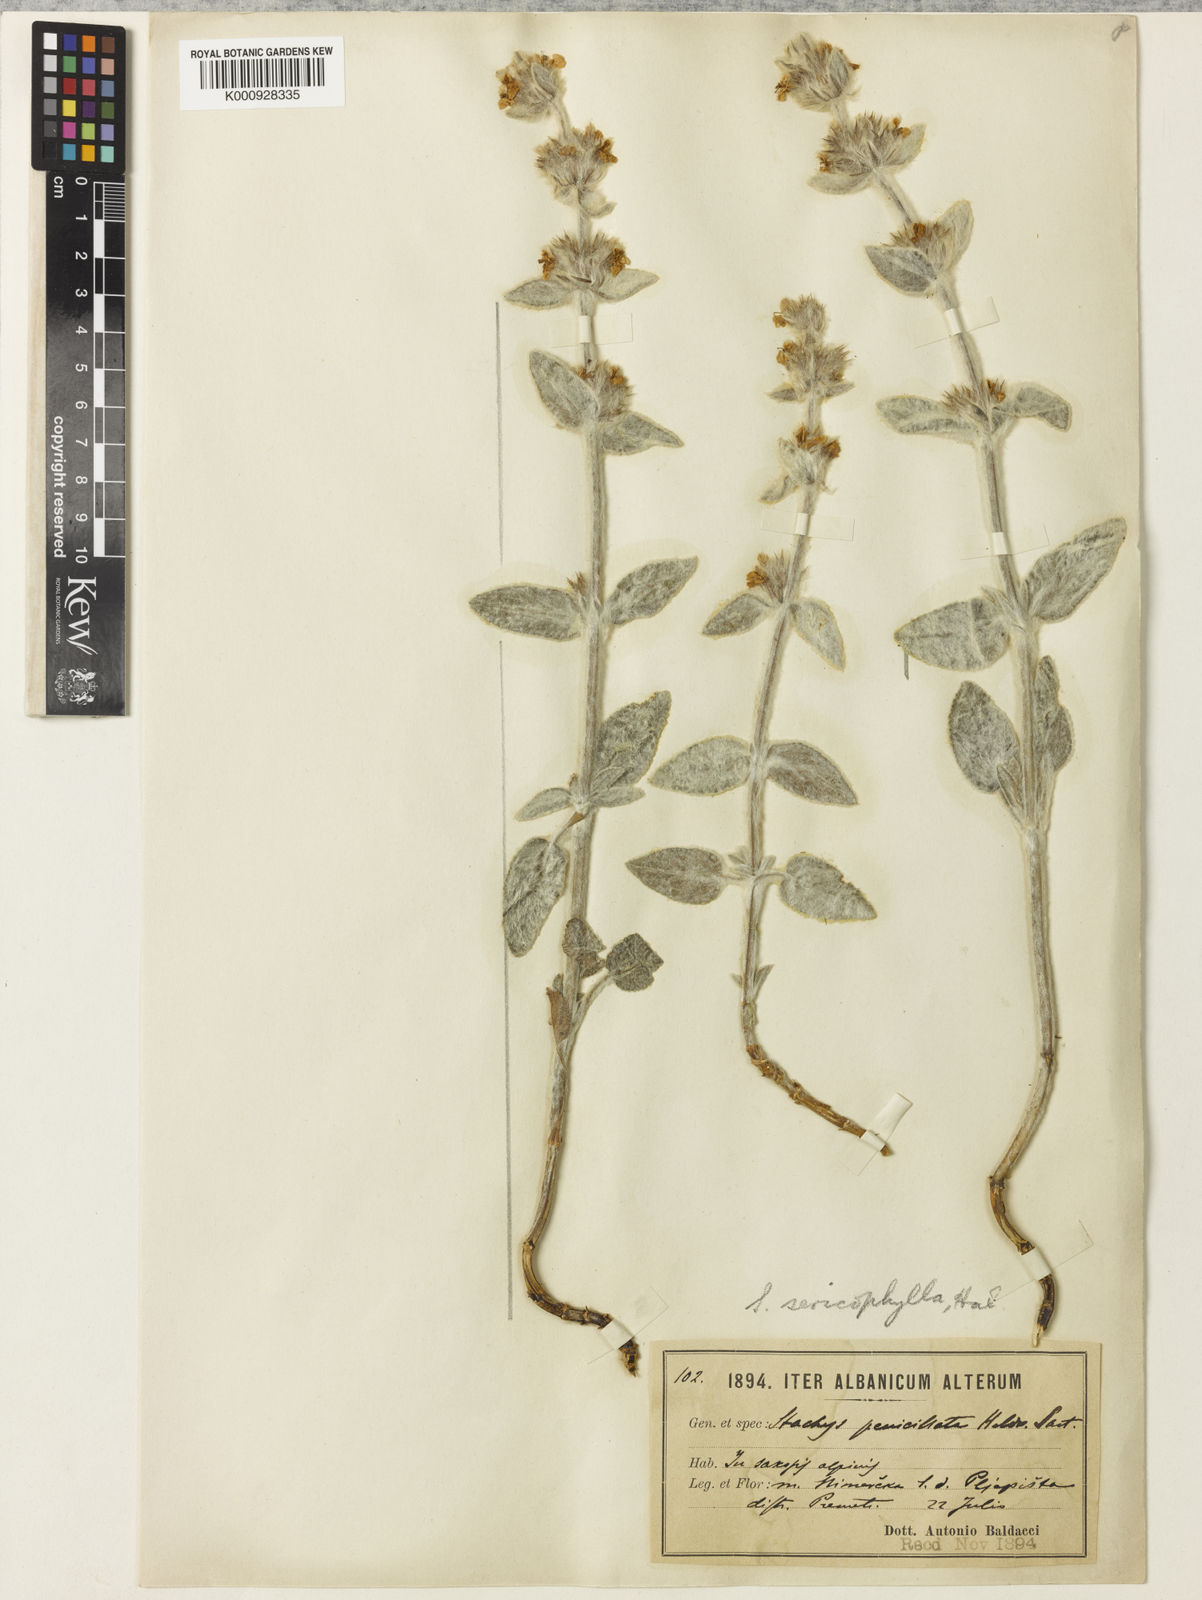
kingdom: Plantae
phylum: Tracheophyta
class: Magnoliopsida
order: Lamiales
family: Lamiaceae
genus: Stachys
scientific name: Stachys
